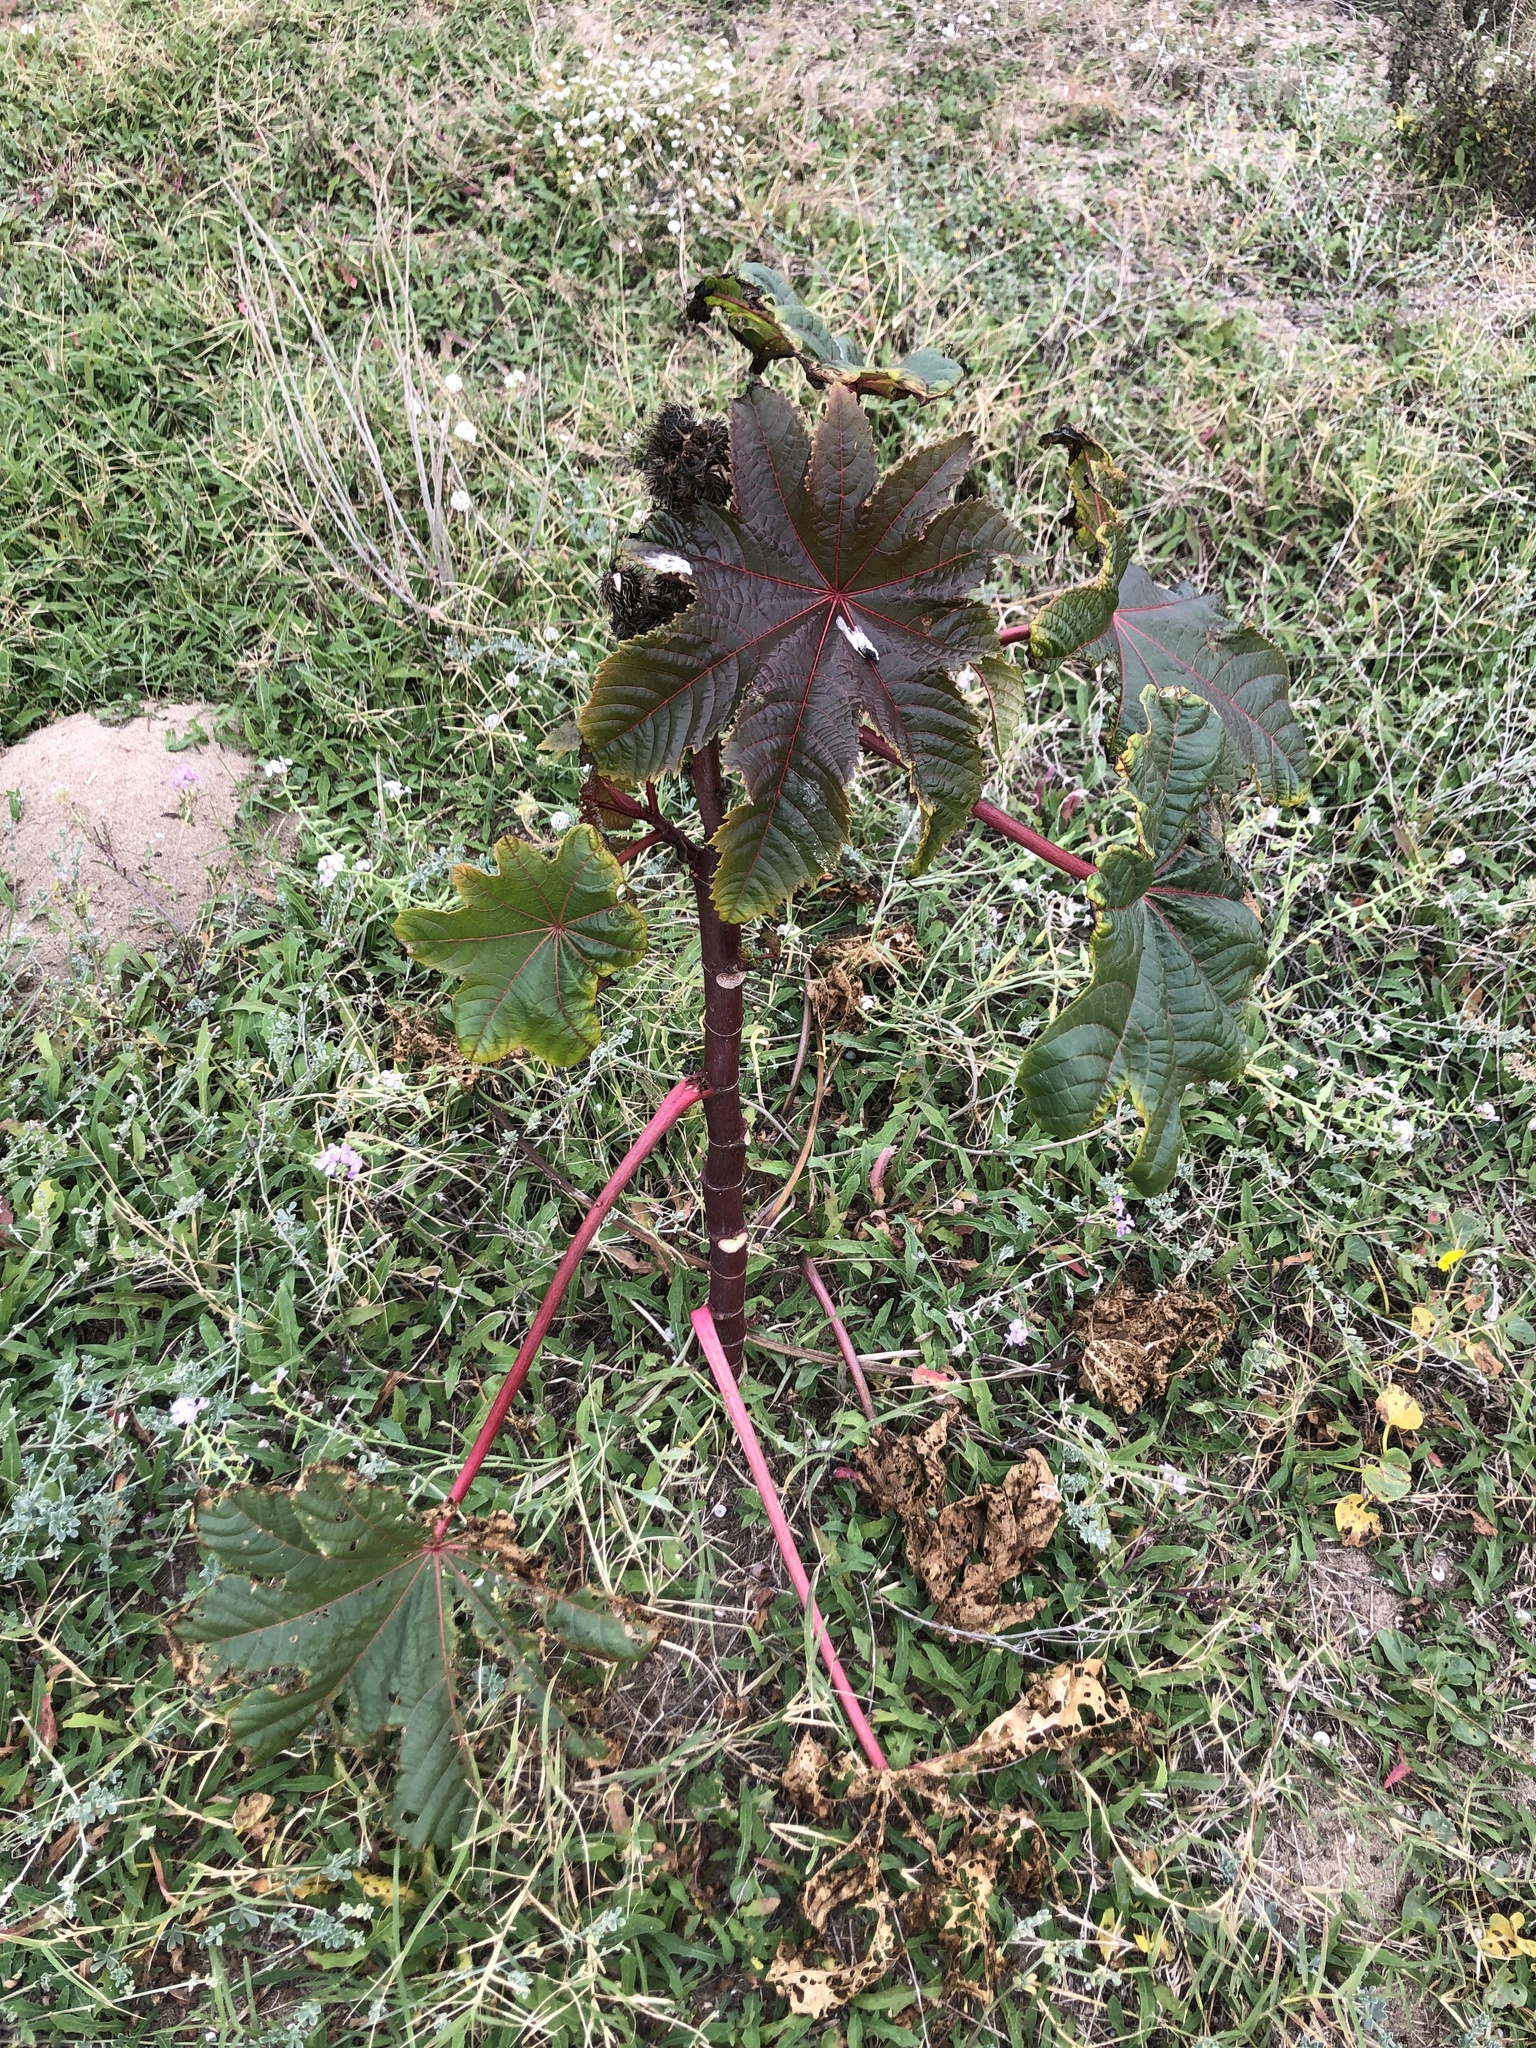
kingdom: Plantae
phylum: Tracheophyta
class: Magnoliopsida
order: Malpighiales
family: Euphorbiaceae
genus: Ricinus
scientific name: Ricinus communis
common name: Castor-oil-plant
